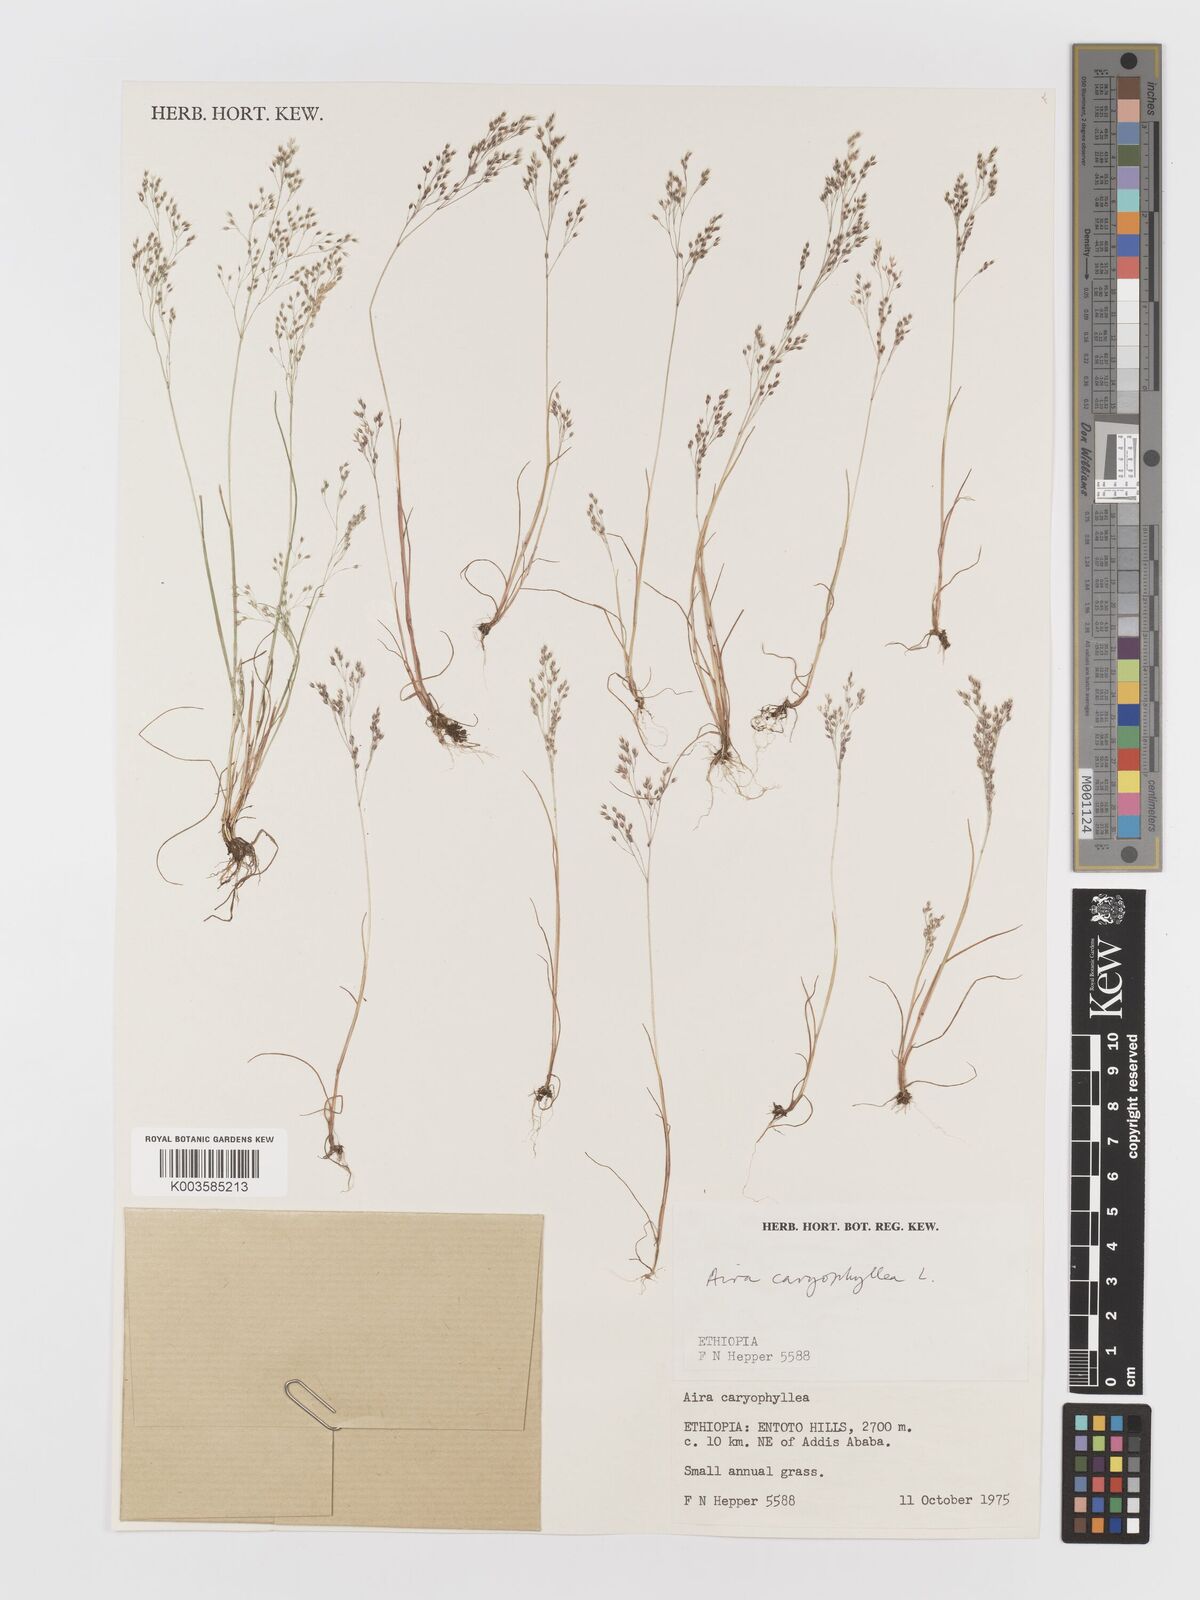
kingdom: Plantae
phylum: Tracheophyta
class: Liliopsida
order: Poales
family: Poaceae
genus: Aira
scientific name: Aira caryophyllea
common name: Silver hairgrass
